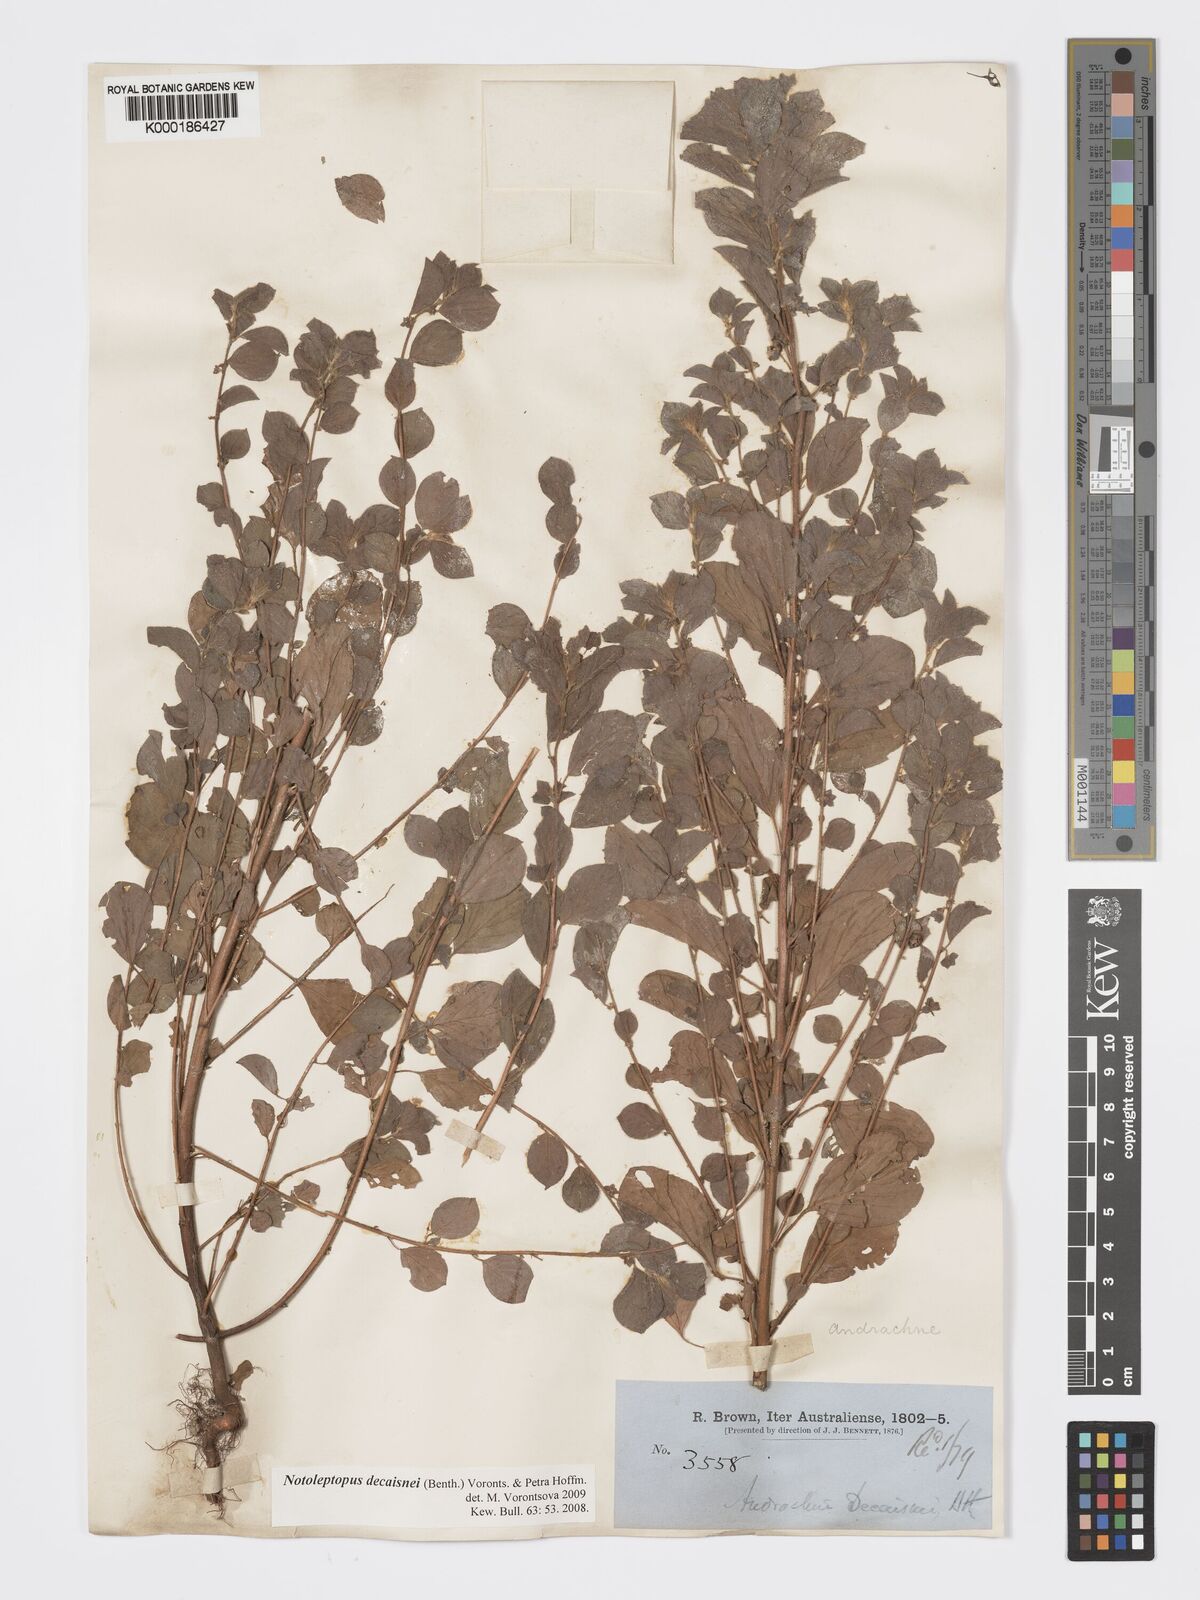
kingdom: Plantae
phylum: Tracheophyta
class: Magnoliopsida
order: Malpighiales
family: Phyllanthaceae
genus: Andrachne
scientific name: Andrachne
